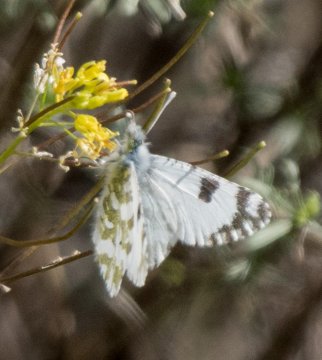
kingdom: Animalia
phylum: Arthropoda
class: Insecta
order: Lepidoptera
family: Pieridae
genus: Euchloe
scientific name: Euchloe lotta
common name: Desert Marble
